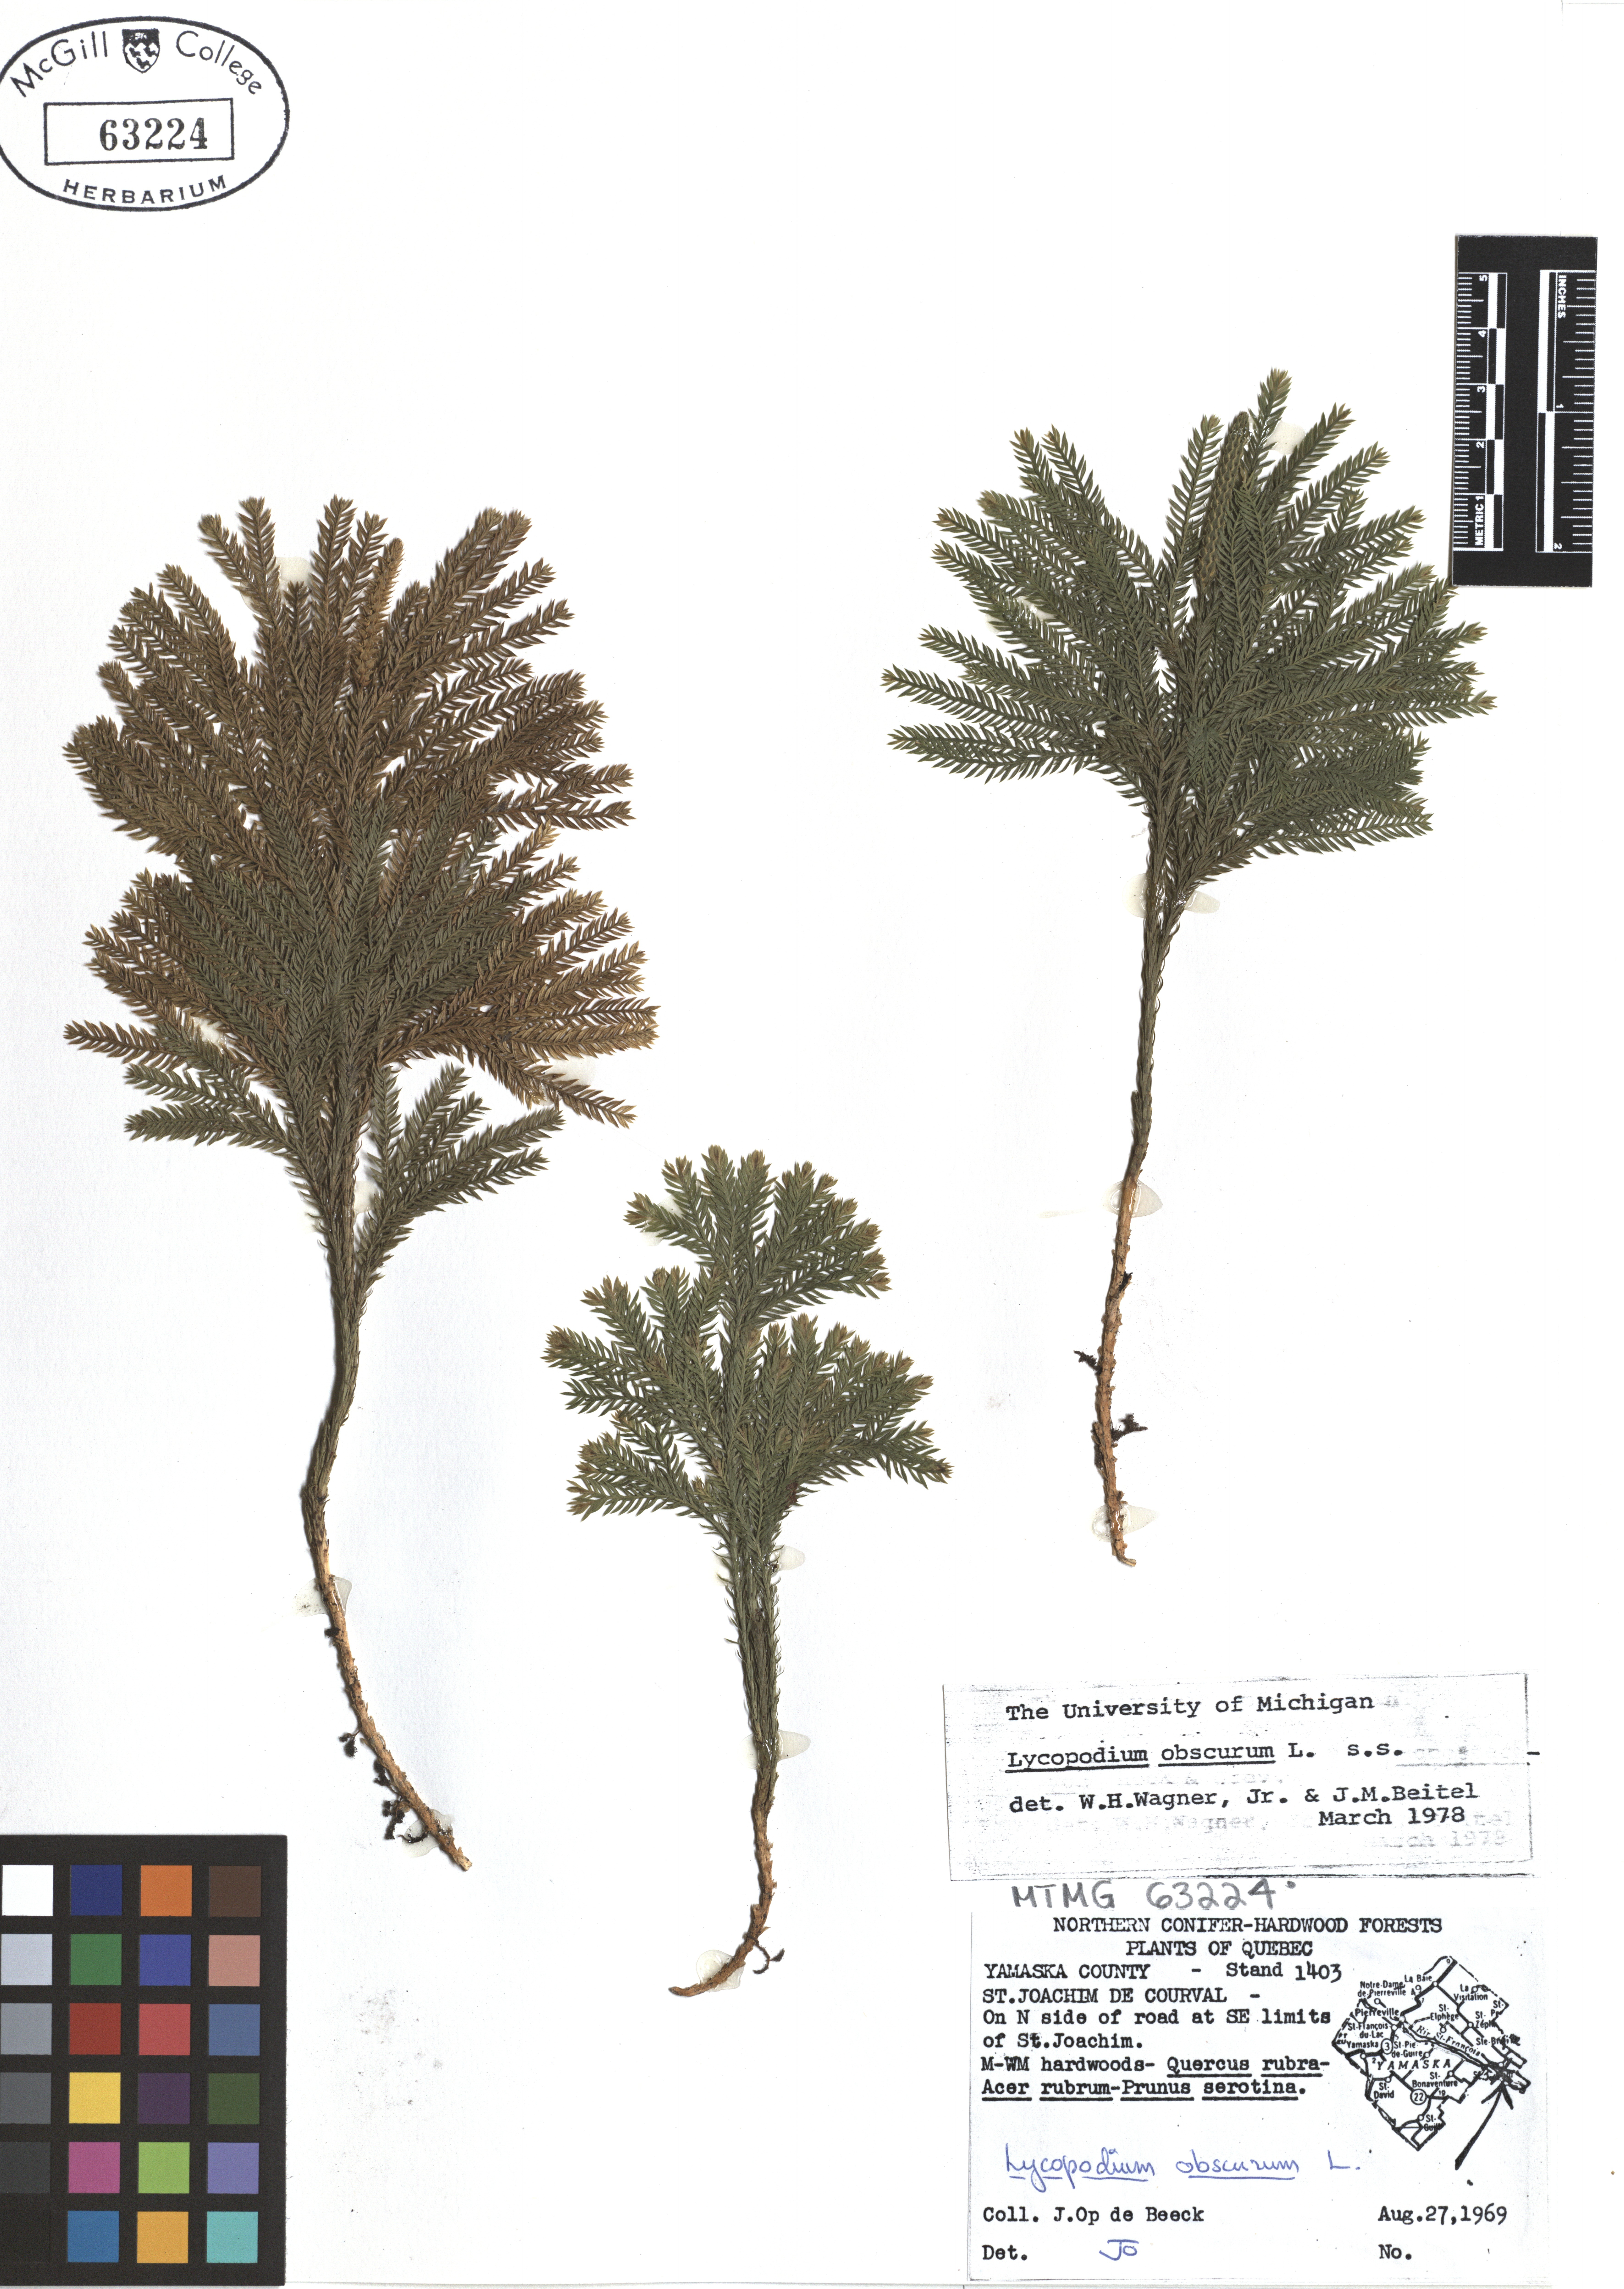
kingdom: Plantae
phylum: Tracheophyta
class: Lycopodiopsida
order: Lycopodiales
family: Lycopodiaceae
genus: Dendrolycopodium
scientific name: Dendrolycopodium obscurum
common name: Common ground-pine
